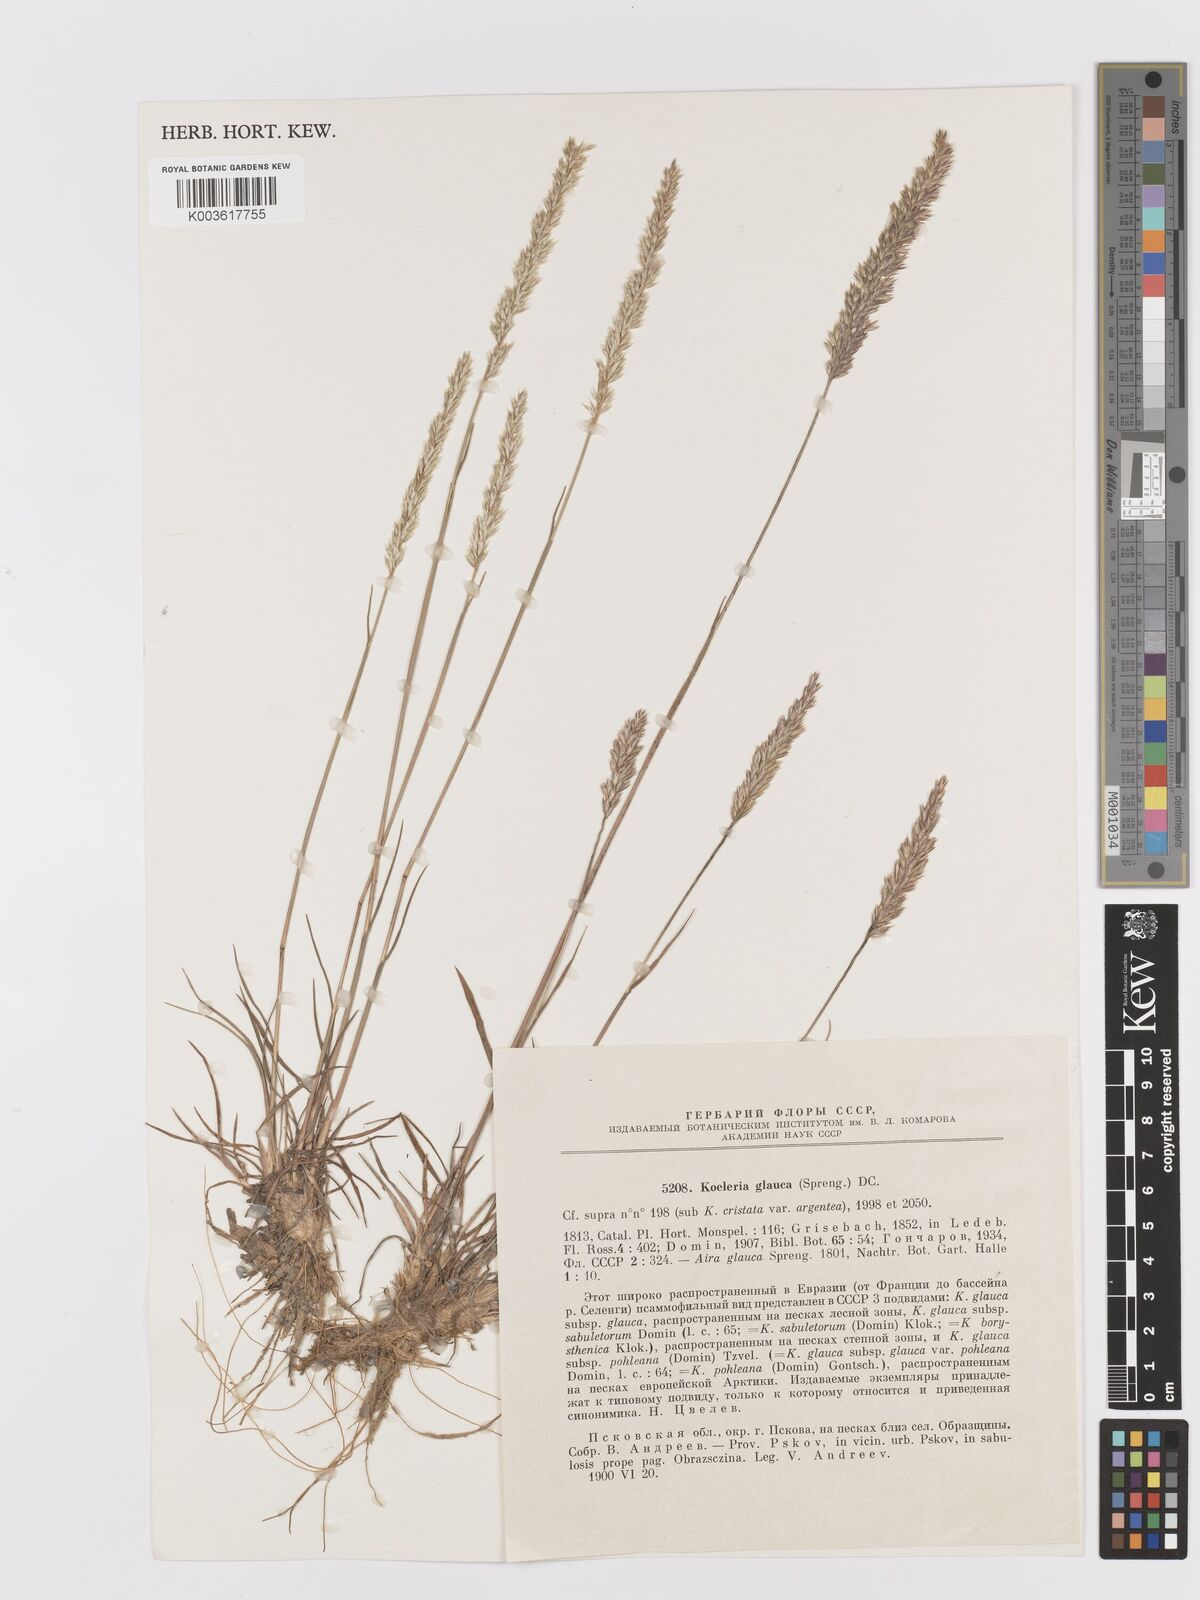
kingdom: Plantae
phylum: Tracheophyta
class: Liliopsida
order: Poales
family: Poaceae
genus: Koeleria
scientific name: Koeleria glauca
